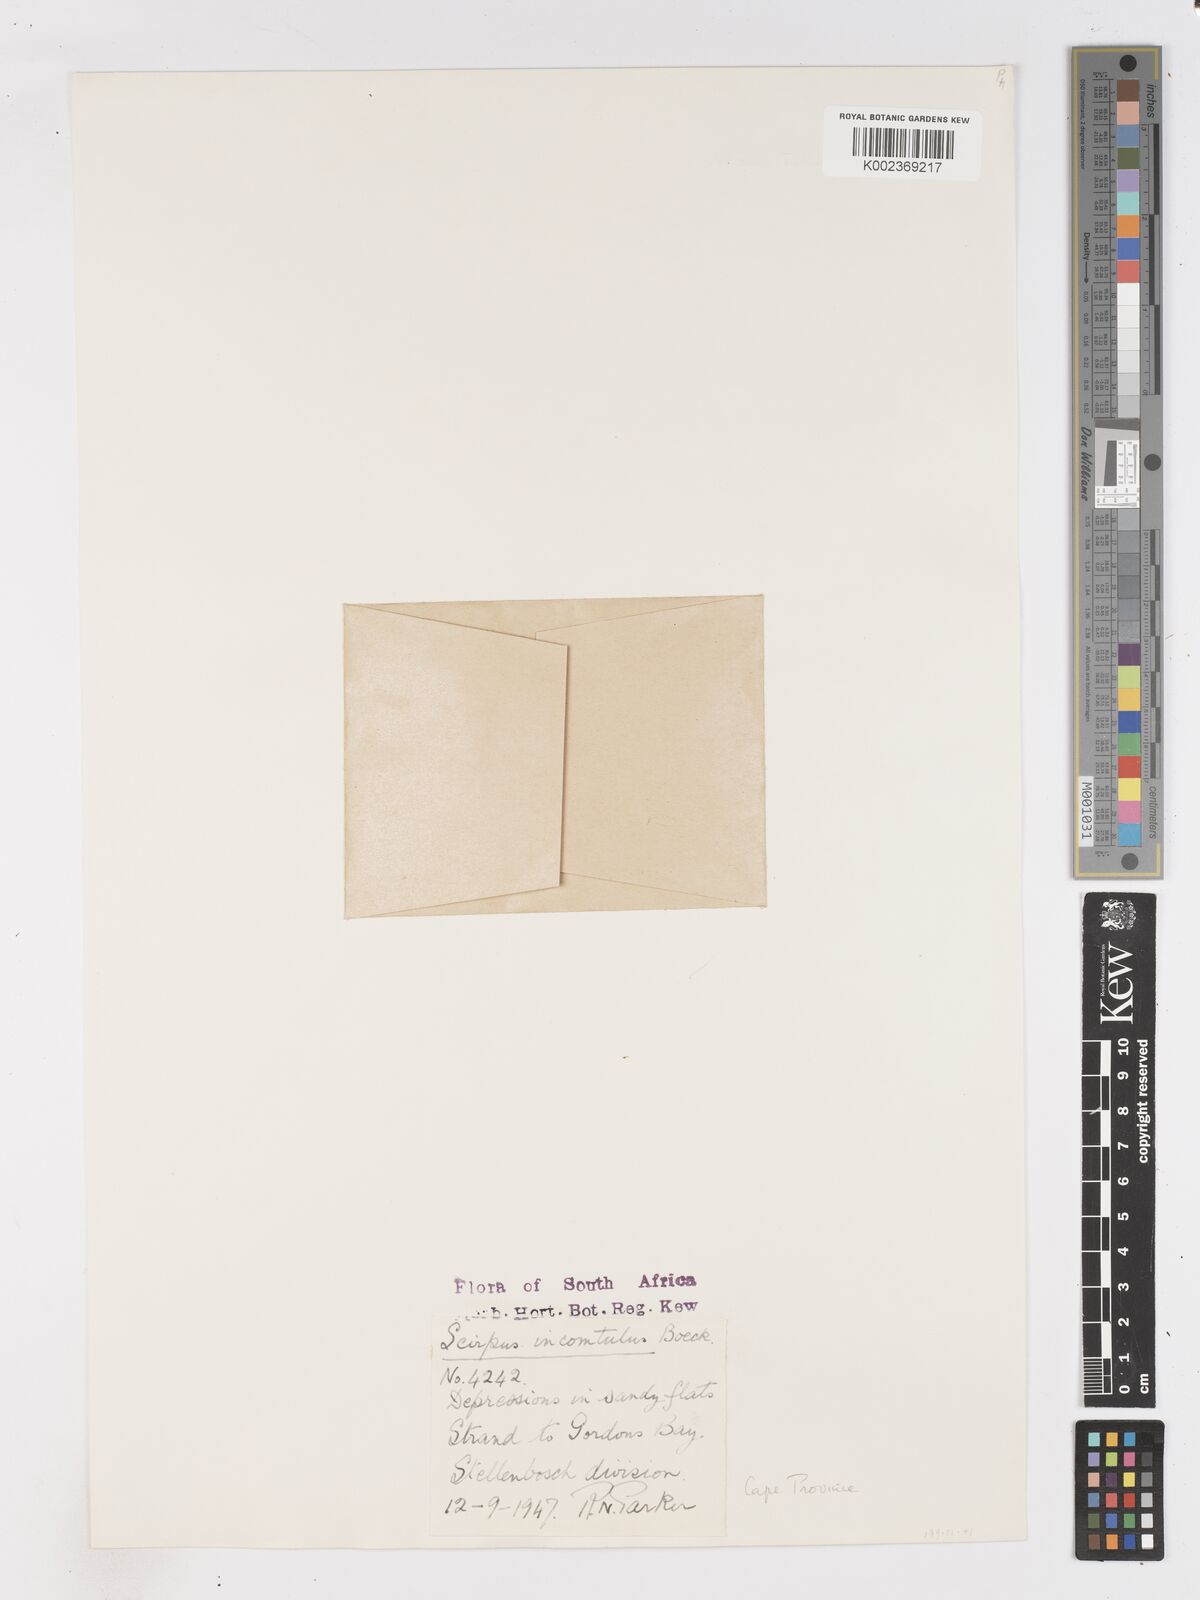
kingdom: Plantae
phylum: Tracheophyta
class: Liliopsida
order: Poales
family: Cyperaceae
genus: Ficinia
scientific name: Ficinia incomtula
